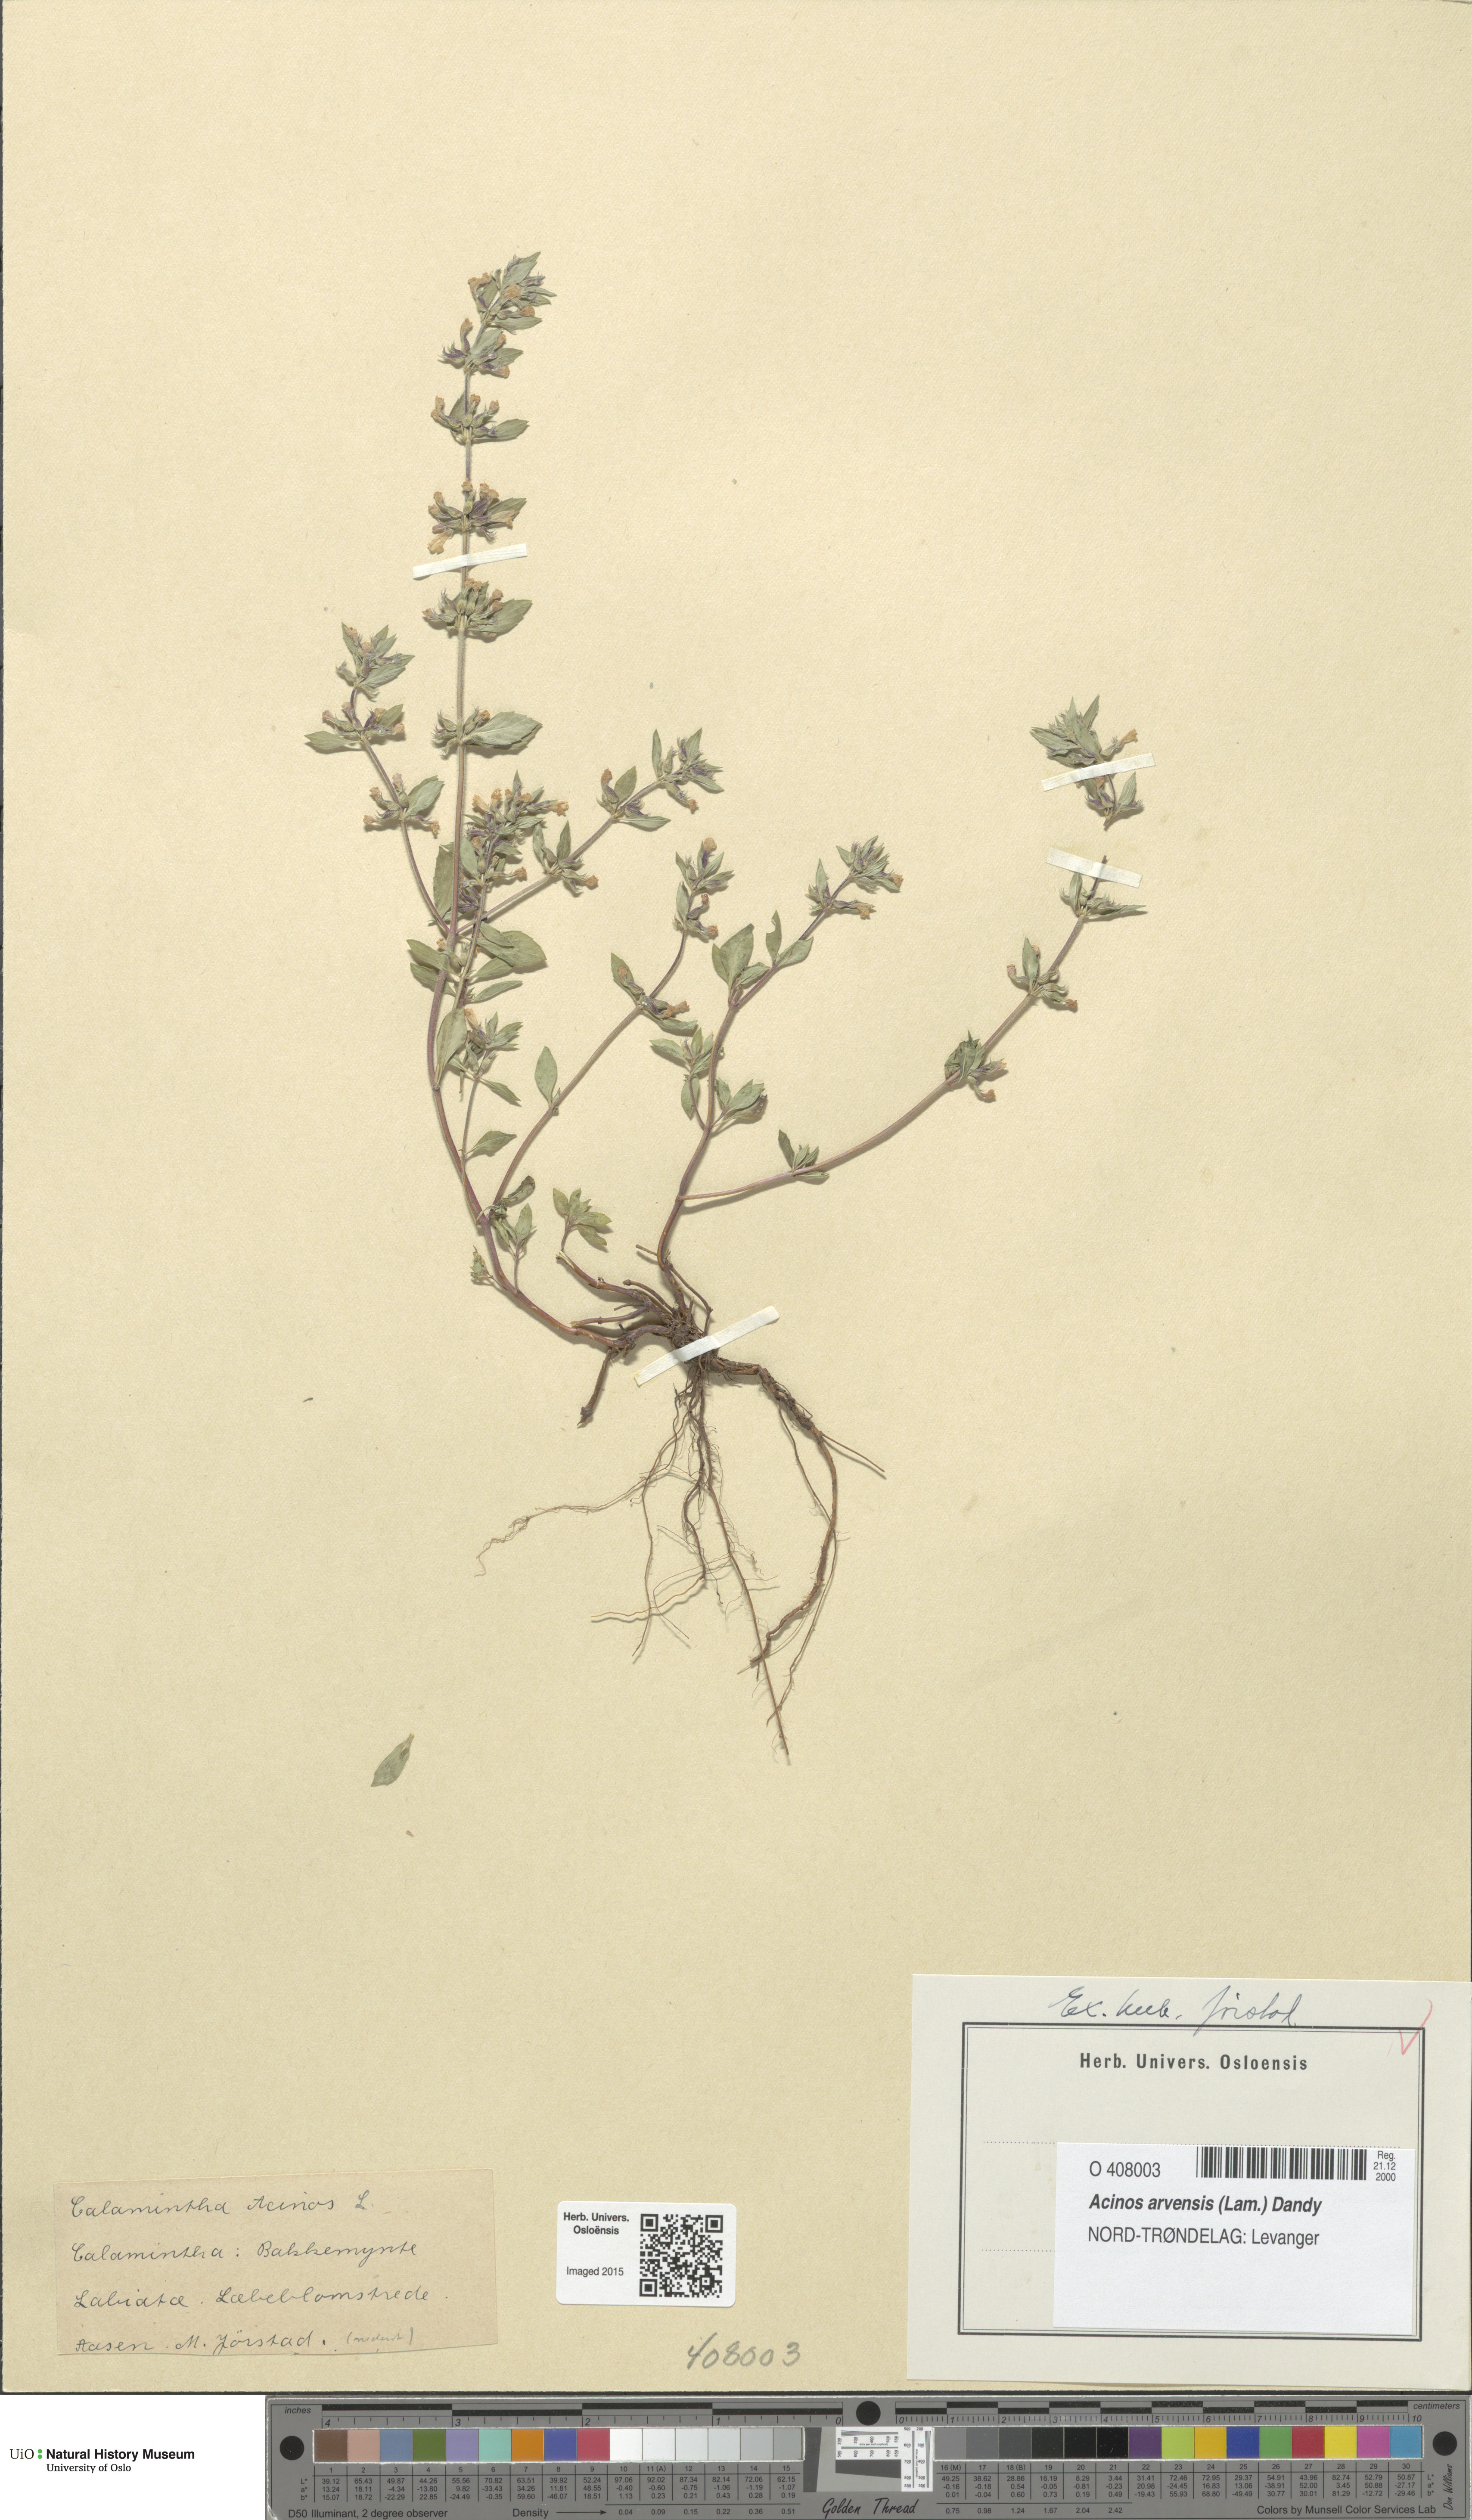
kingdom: Plantae
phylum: Tracheophyta
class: Magnoliopsida
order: Lamiales
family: Lamiaceae
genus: Clinopodium
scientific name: Clinopodium acinos
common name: Basil thyme
